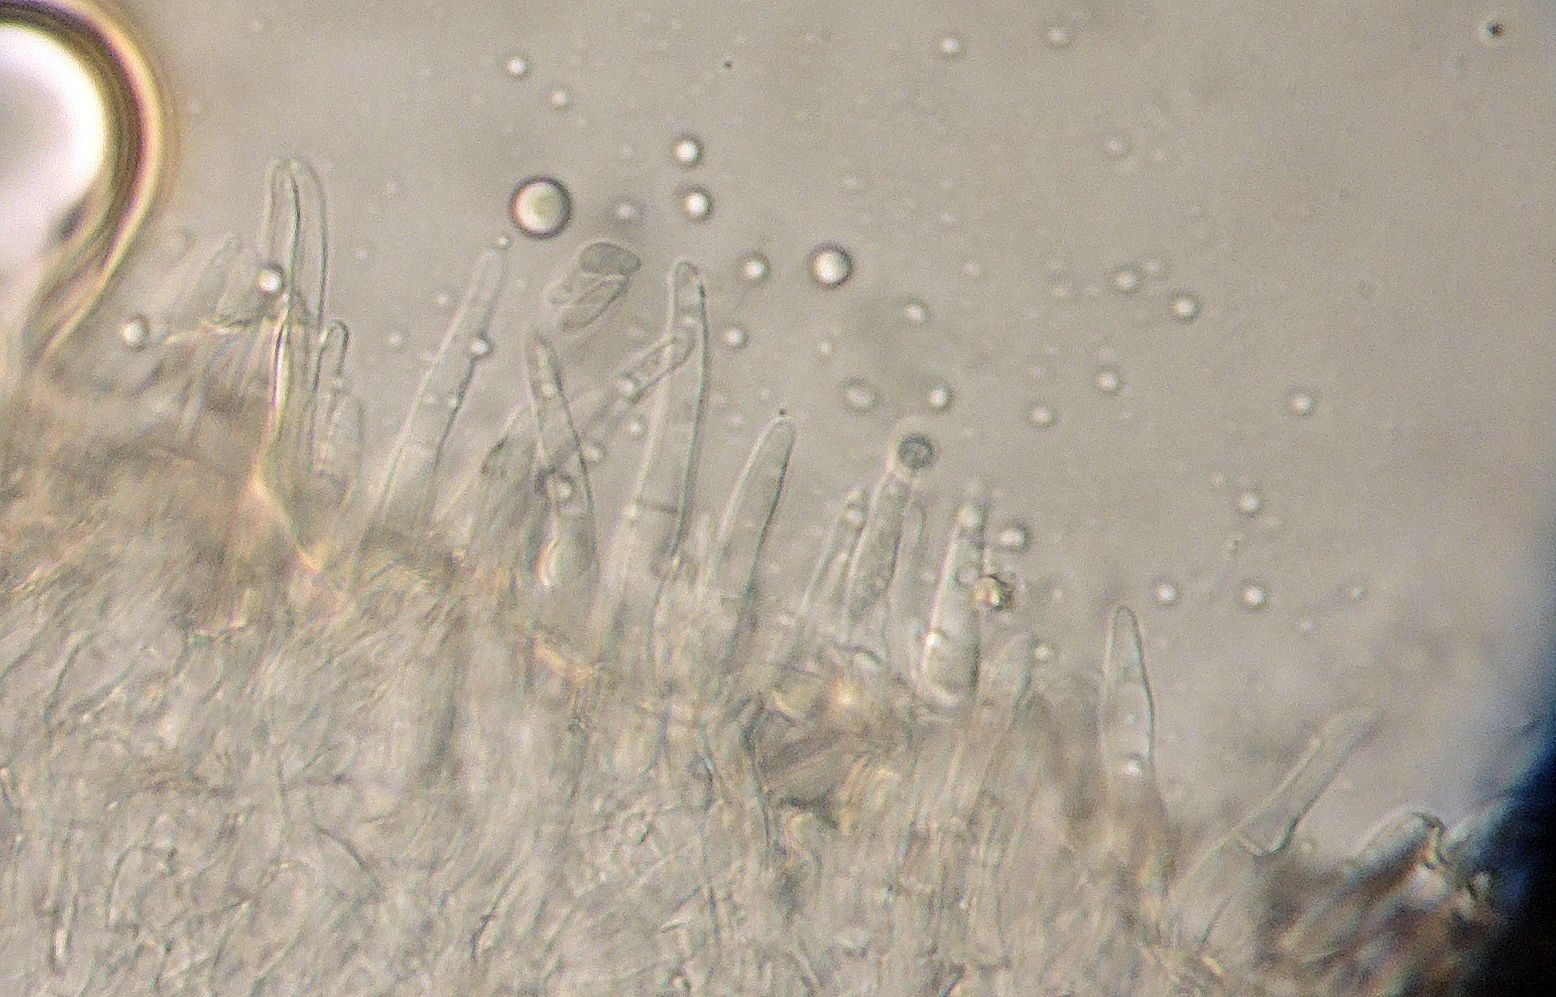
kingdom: Fungi
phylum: Ascomycota
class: Leotiomycetes
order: Helotiales
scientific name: Helotiales
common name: stilkskiveordenen
